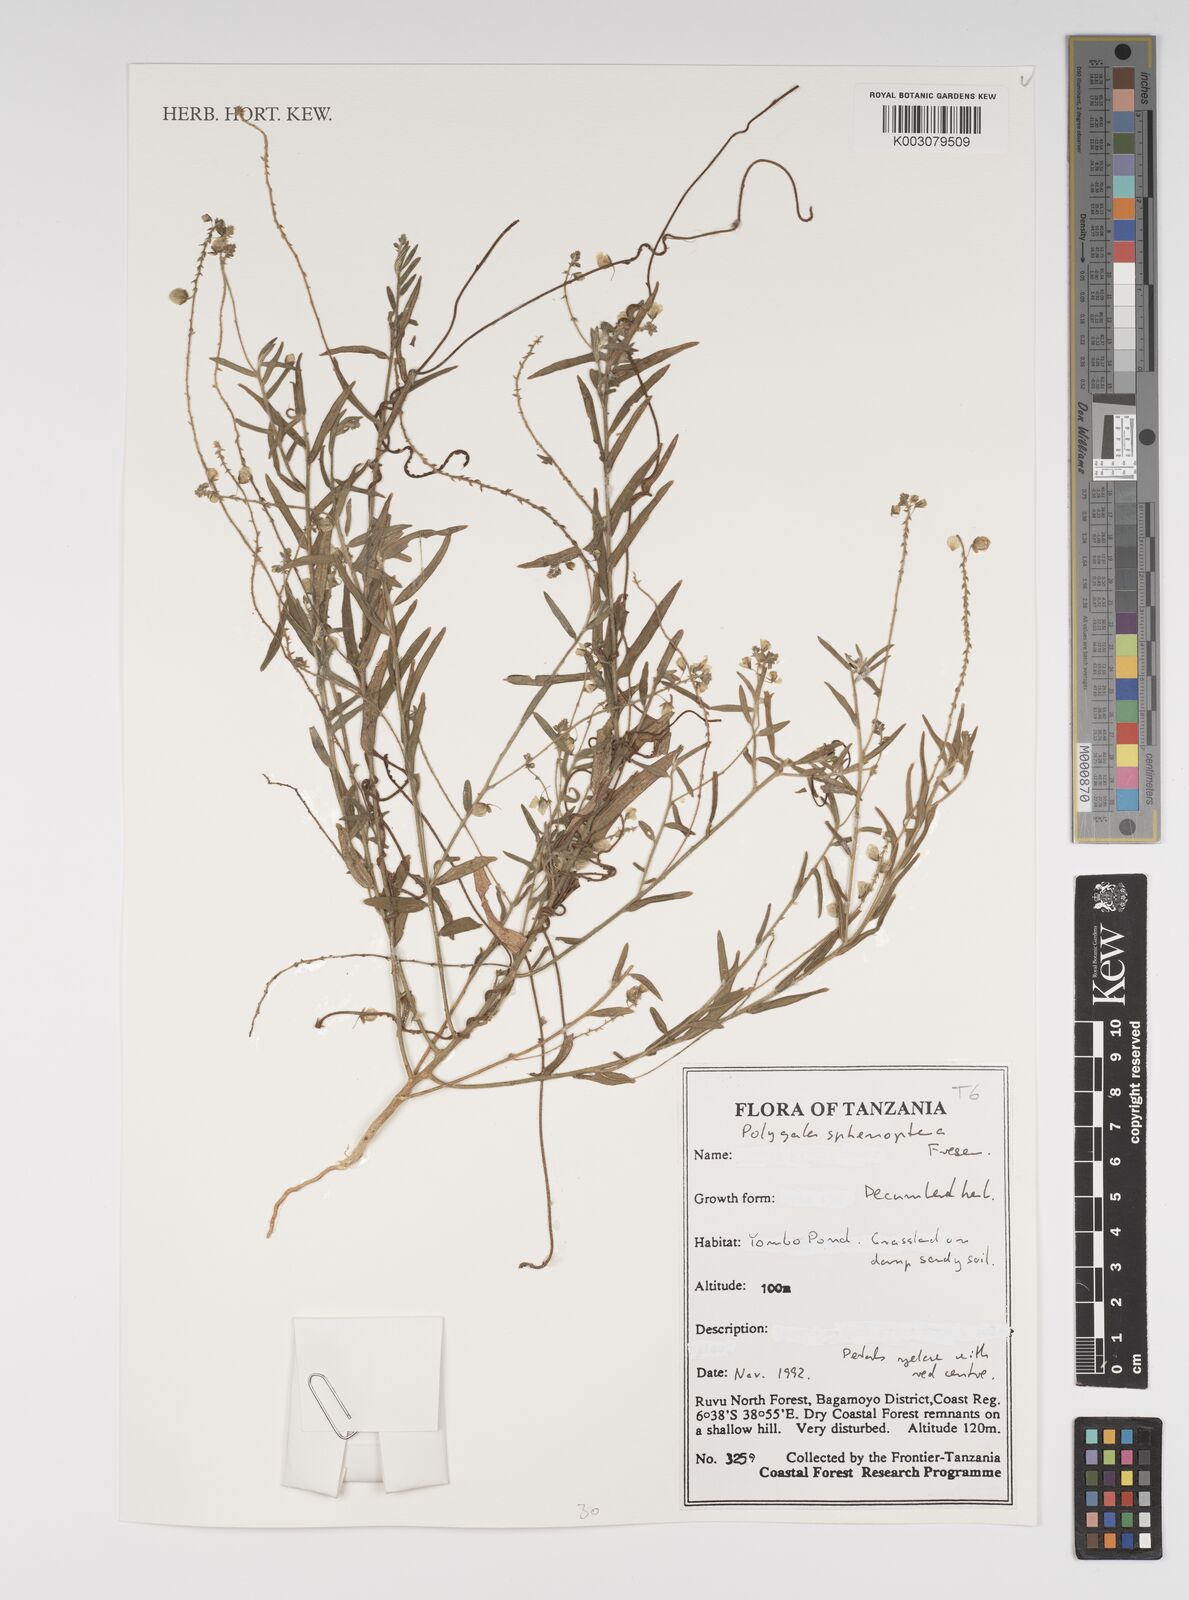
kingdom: Plantae
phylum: Tracheophyta
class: Magnoliopsida
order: Fabales
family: Polygalaceae
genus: Polygala
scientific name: Polygala sphenoptera
